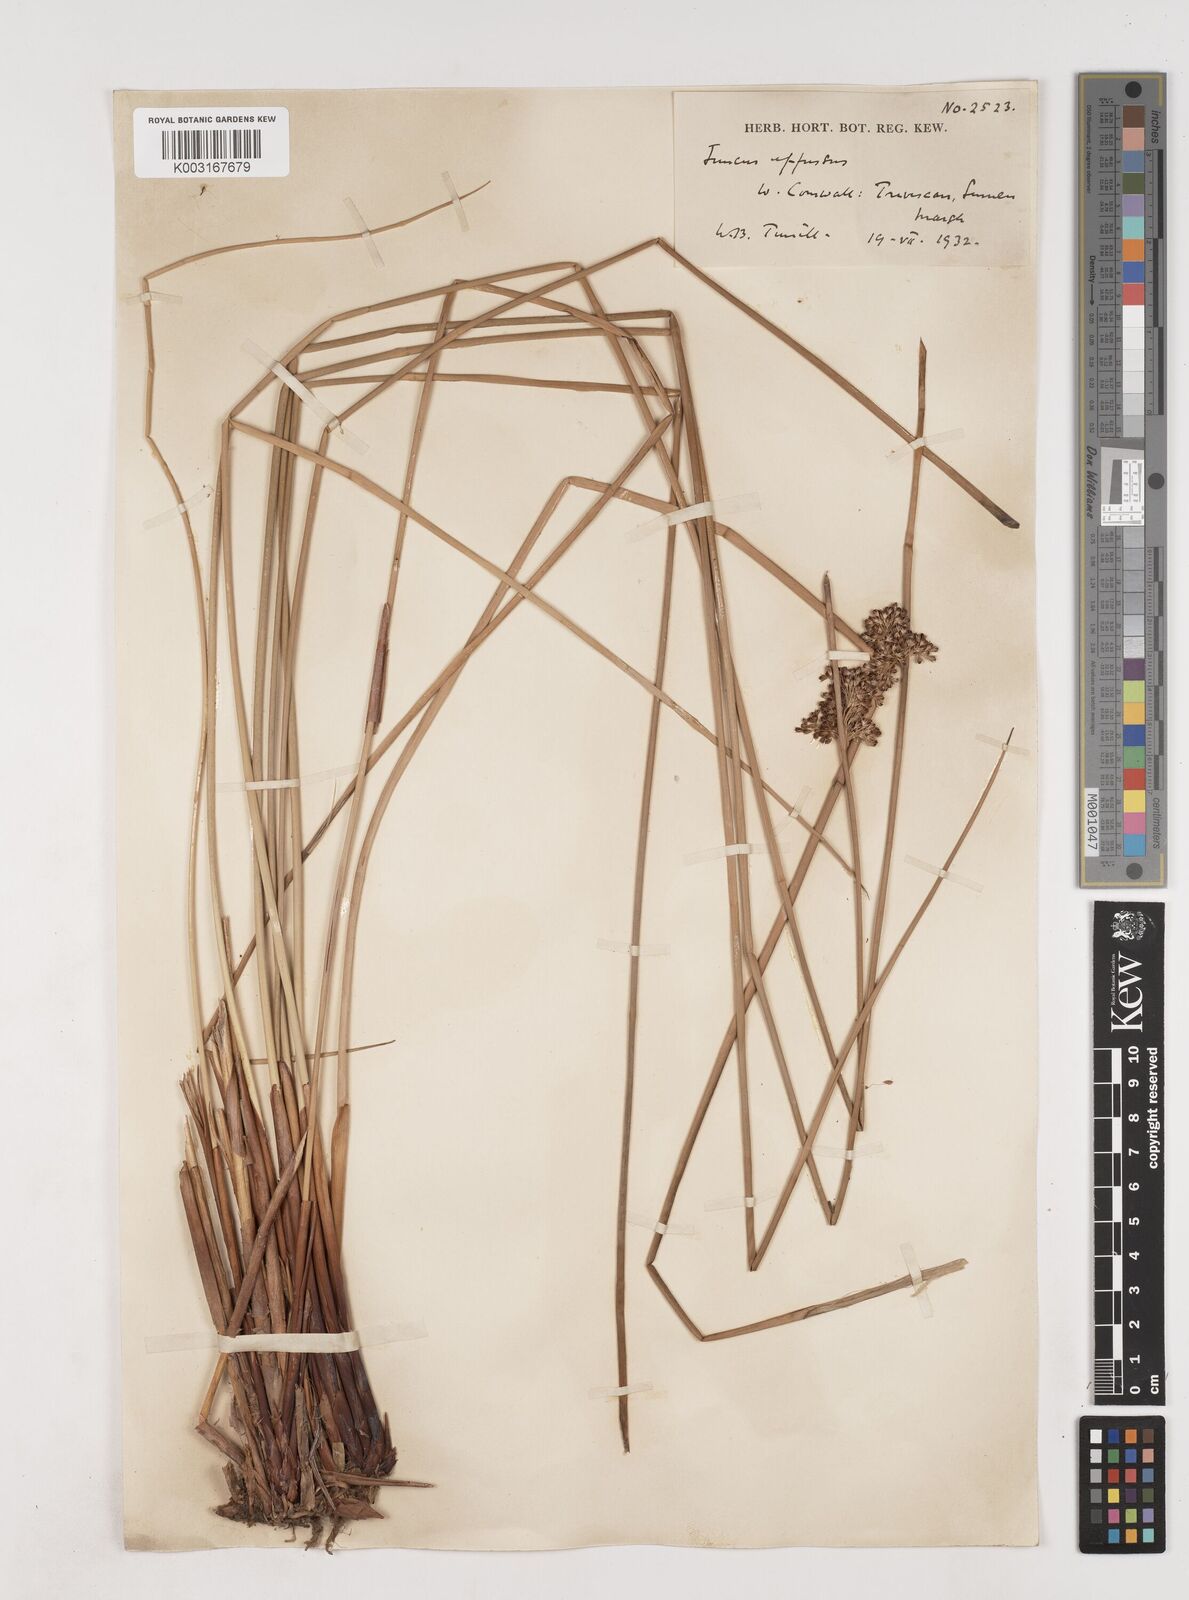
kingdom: Plantae
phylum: Tracheophyta
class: Liliopsida
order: Poales
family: Juncaceae
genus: Juncus
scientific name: Juncus effusus
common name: Soft rush
